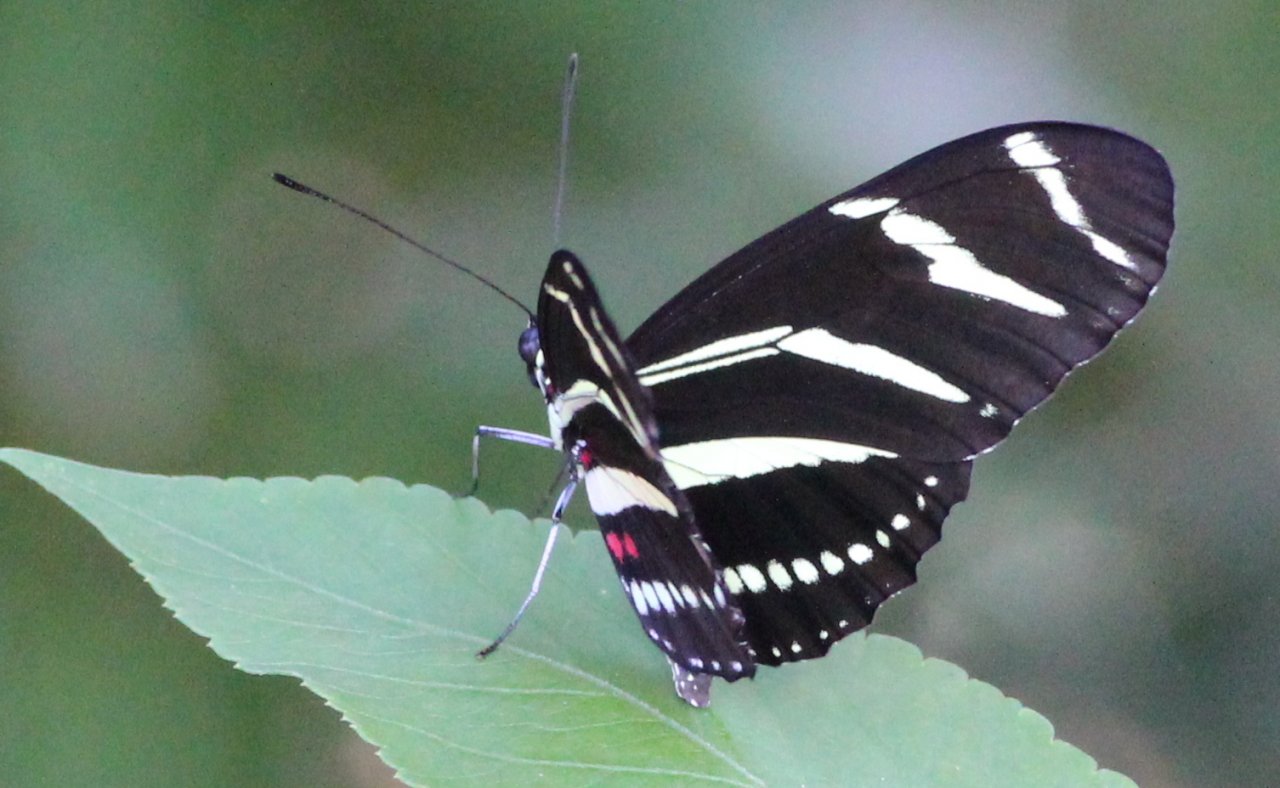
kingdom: Animalia
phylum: Arthropoda
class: Insecta
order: Lepidoptera
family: Nymphalidae
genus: Heliconius
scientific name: Heliconius charithonia
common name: Zebra Longwing
